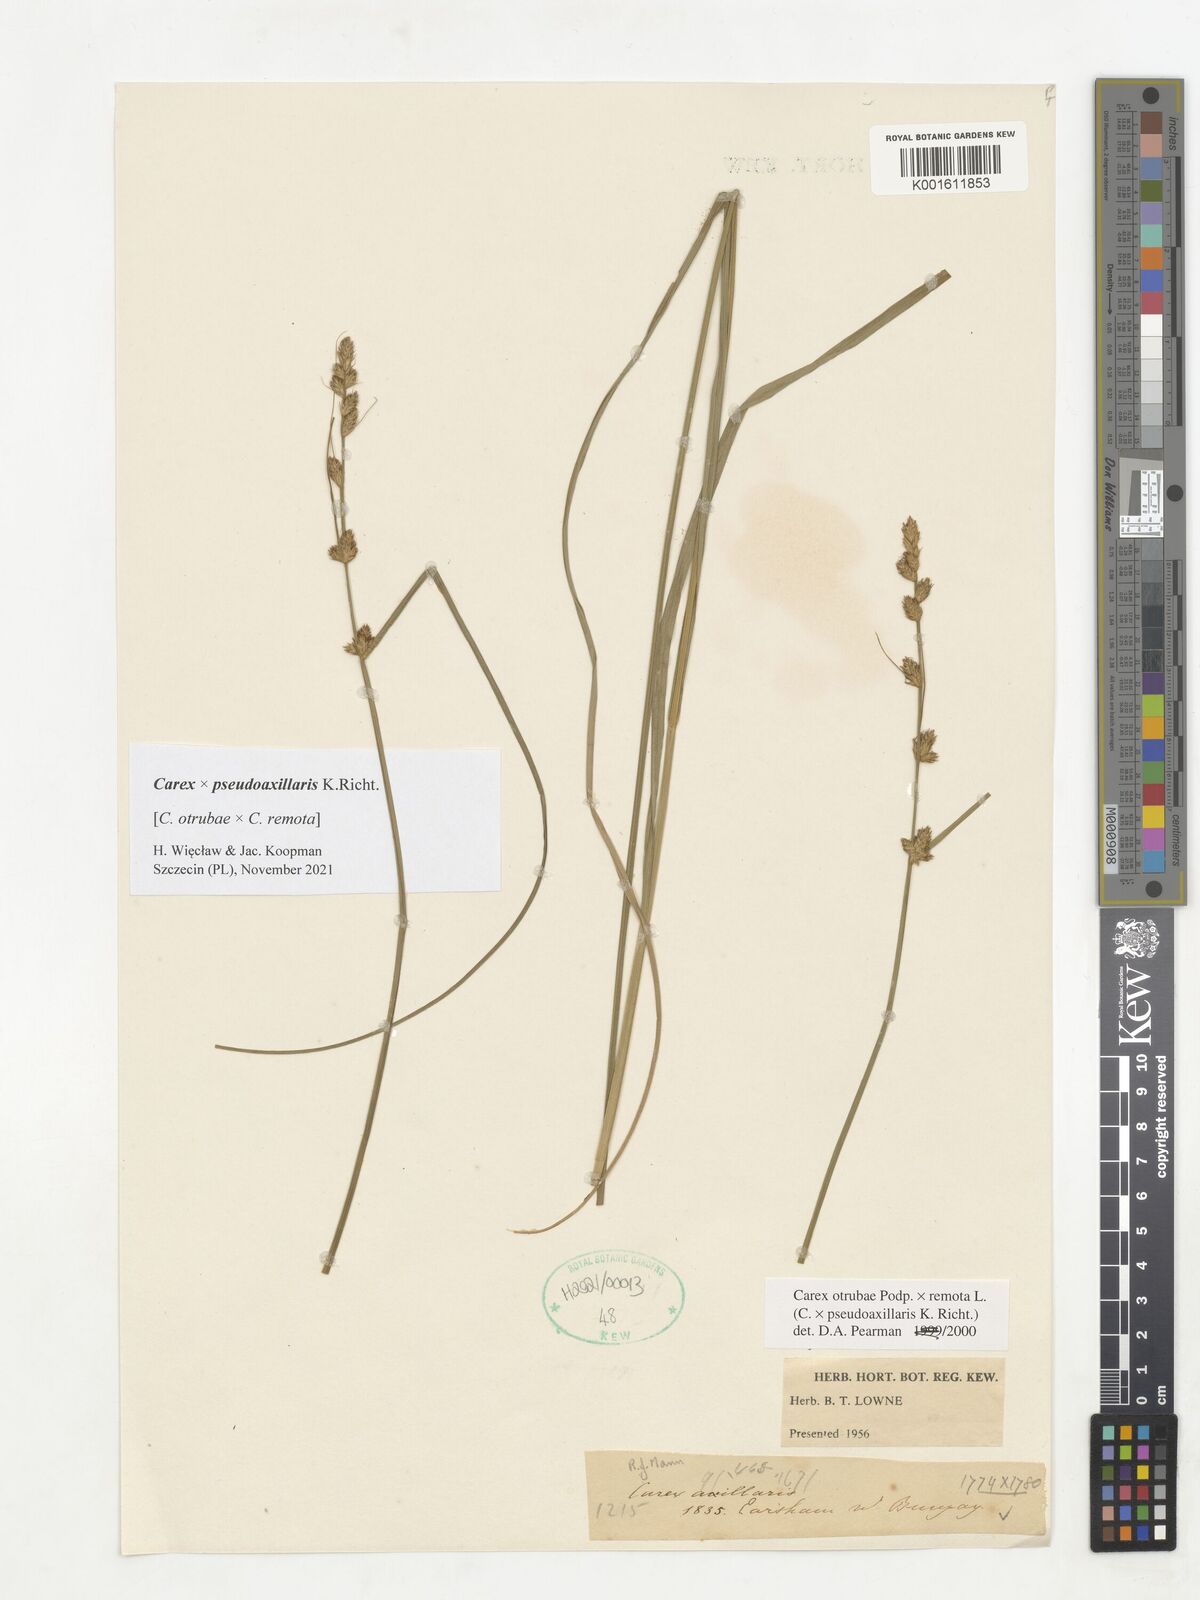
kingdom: Plantae
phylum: Tracheophyta
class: Liliopsida
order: Poales
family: Cyperaceae
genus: Carex
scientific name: Carex pseudoaxillaris
